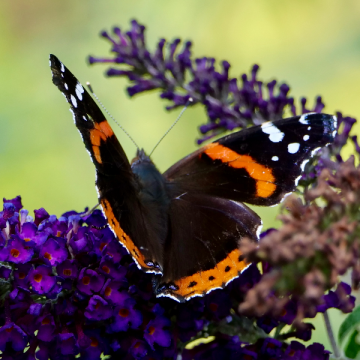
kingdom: Animalia
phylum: Arthropoda
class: Insecta
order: Lepidoptera
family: Nymphalidae
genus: Vanessa
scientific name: Vanessa atalanta
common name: Red Admiral
